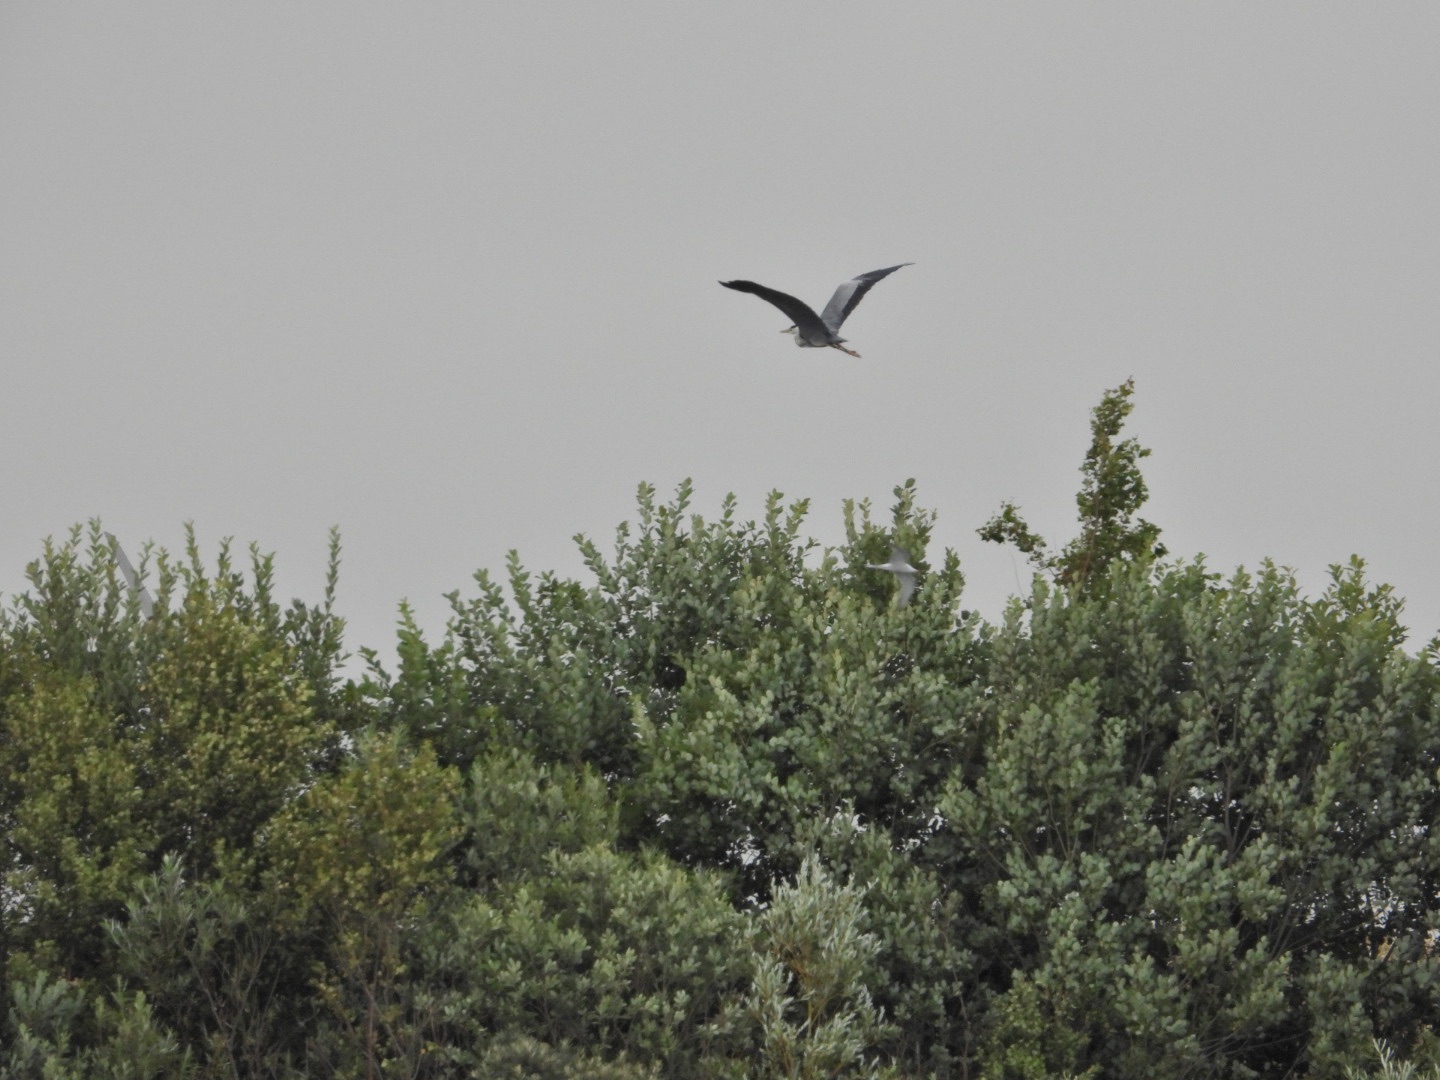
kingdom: Animalia
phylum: Chordata
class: Aves
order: Pelecaniformes
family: Ardeidae
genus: Ardea
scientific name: Ardea cinerea
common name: Fiskehejre
